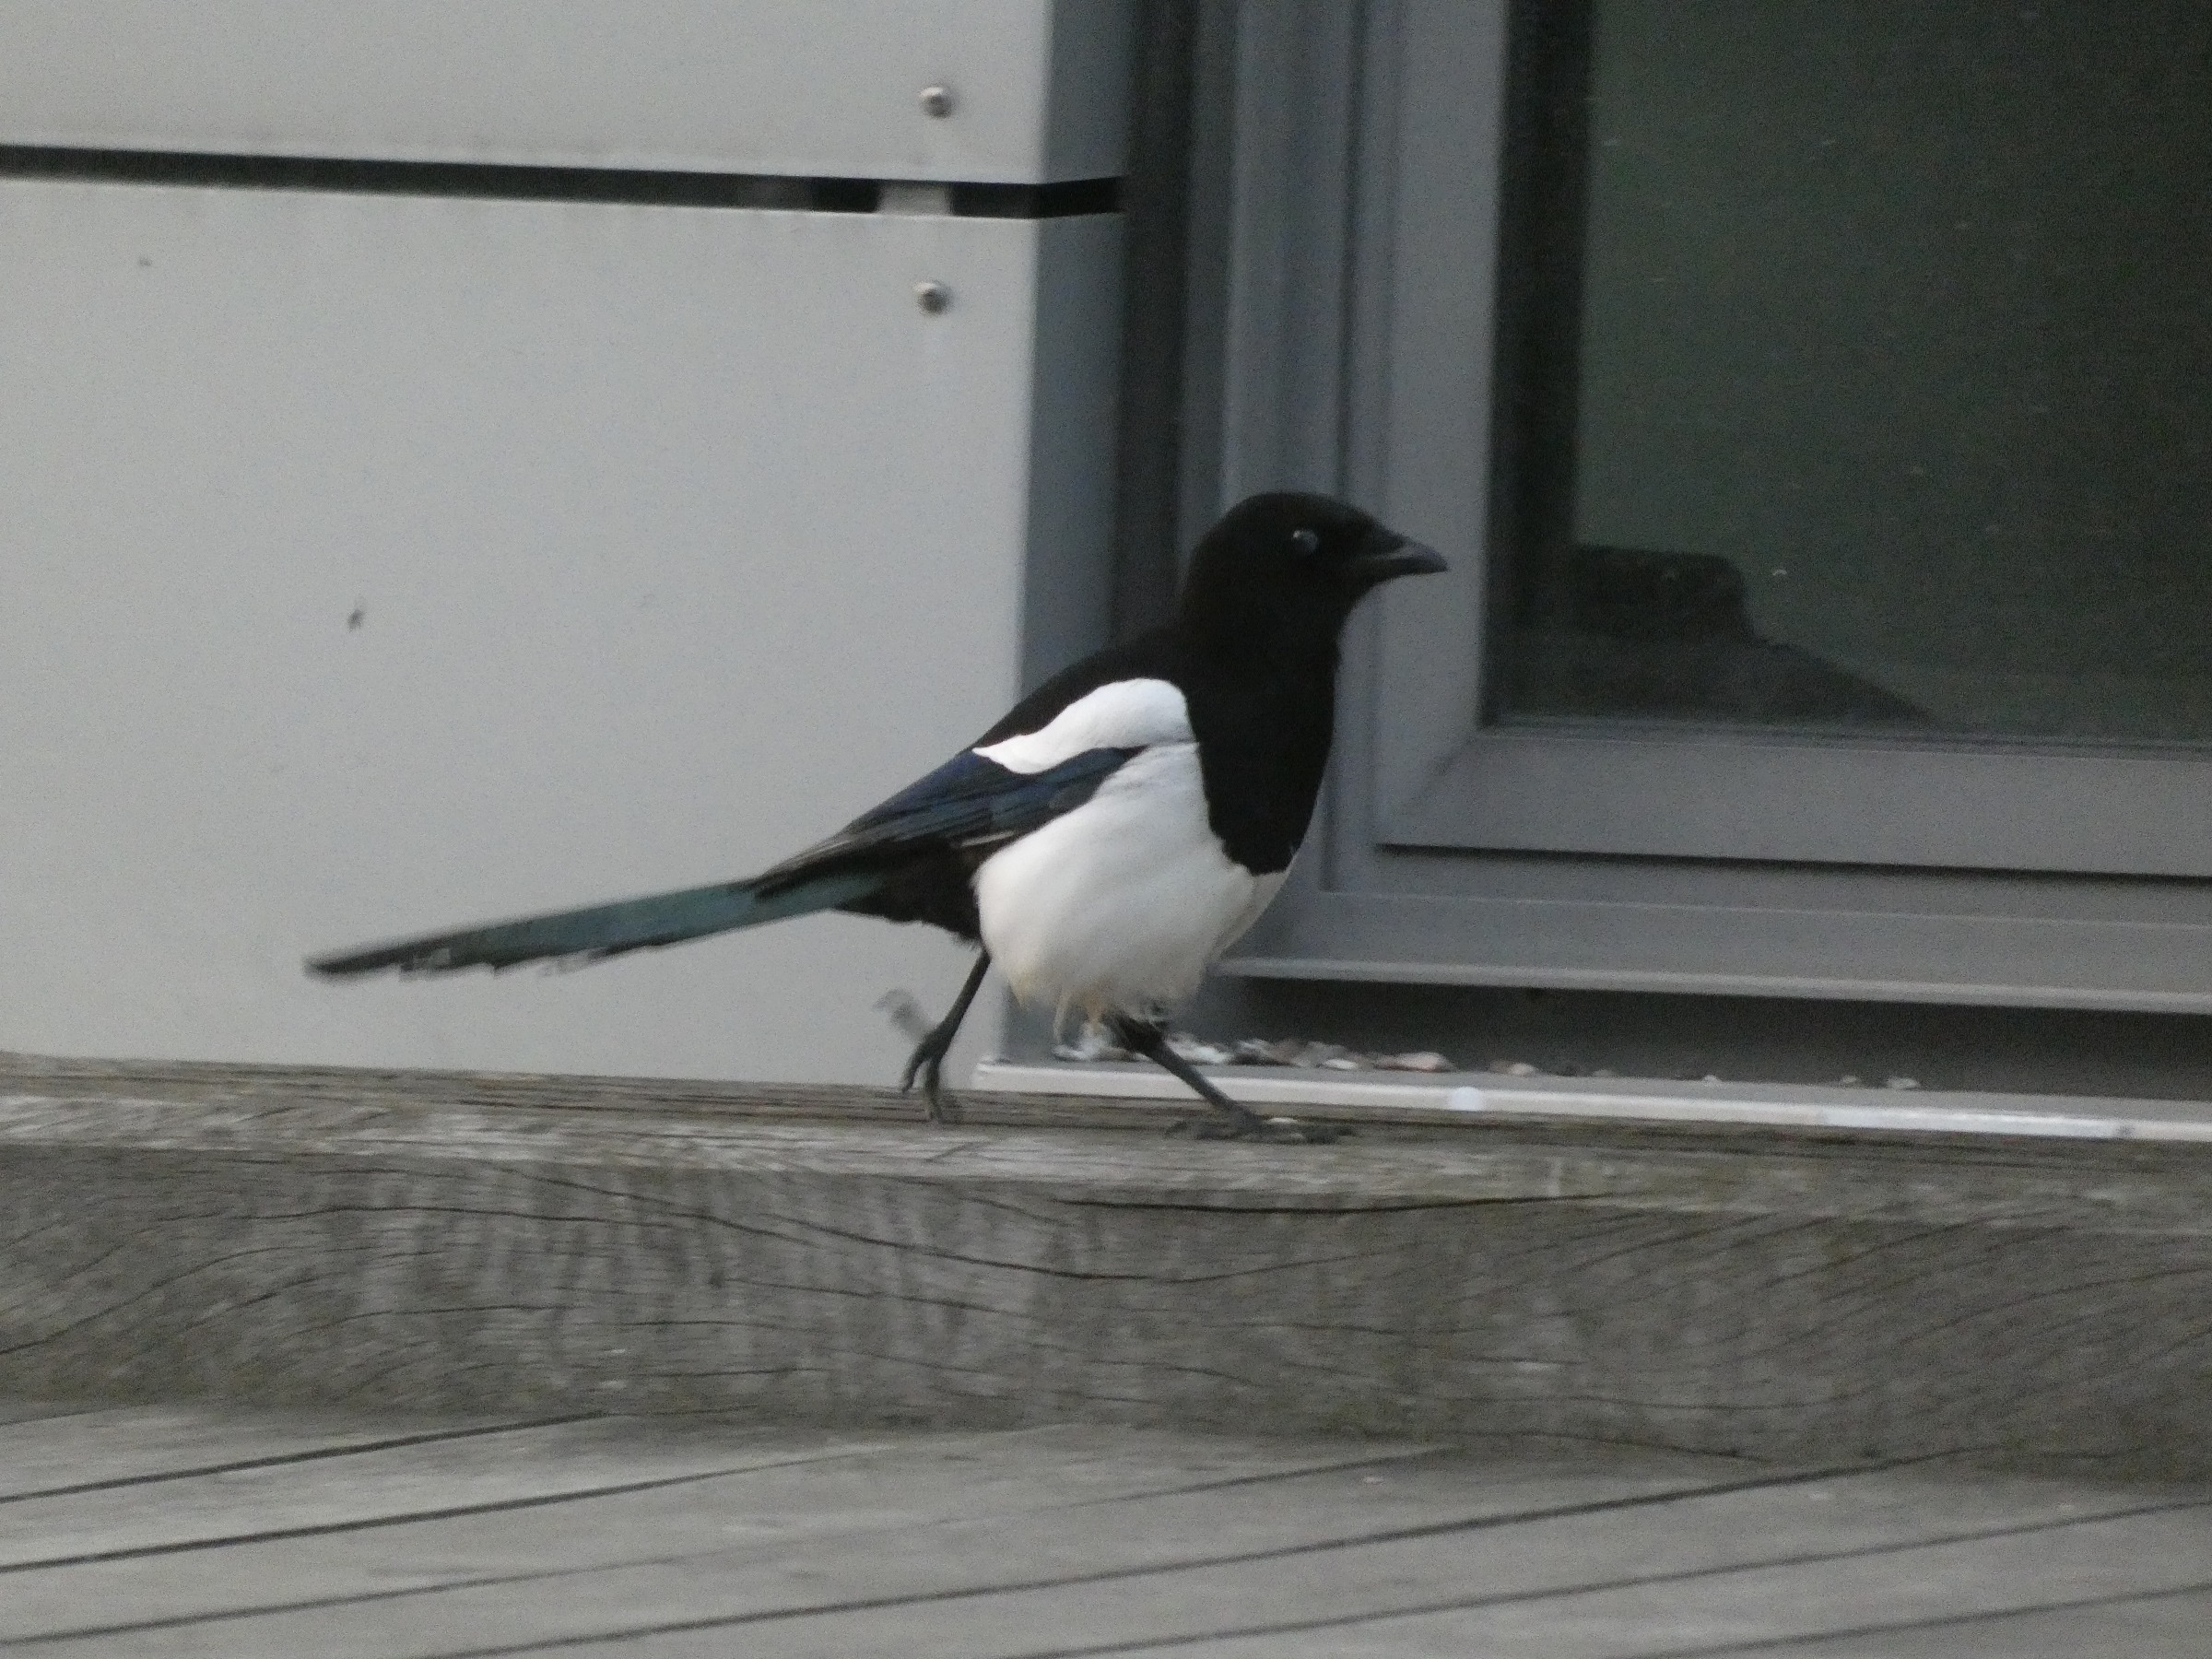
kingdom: Animalia
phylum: Chordata
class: Aves
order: Passeriformes
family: Corvidae
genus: Pica
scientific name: Pica pica
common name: Husskade
